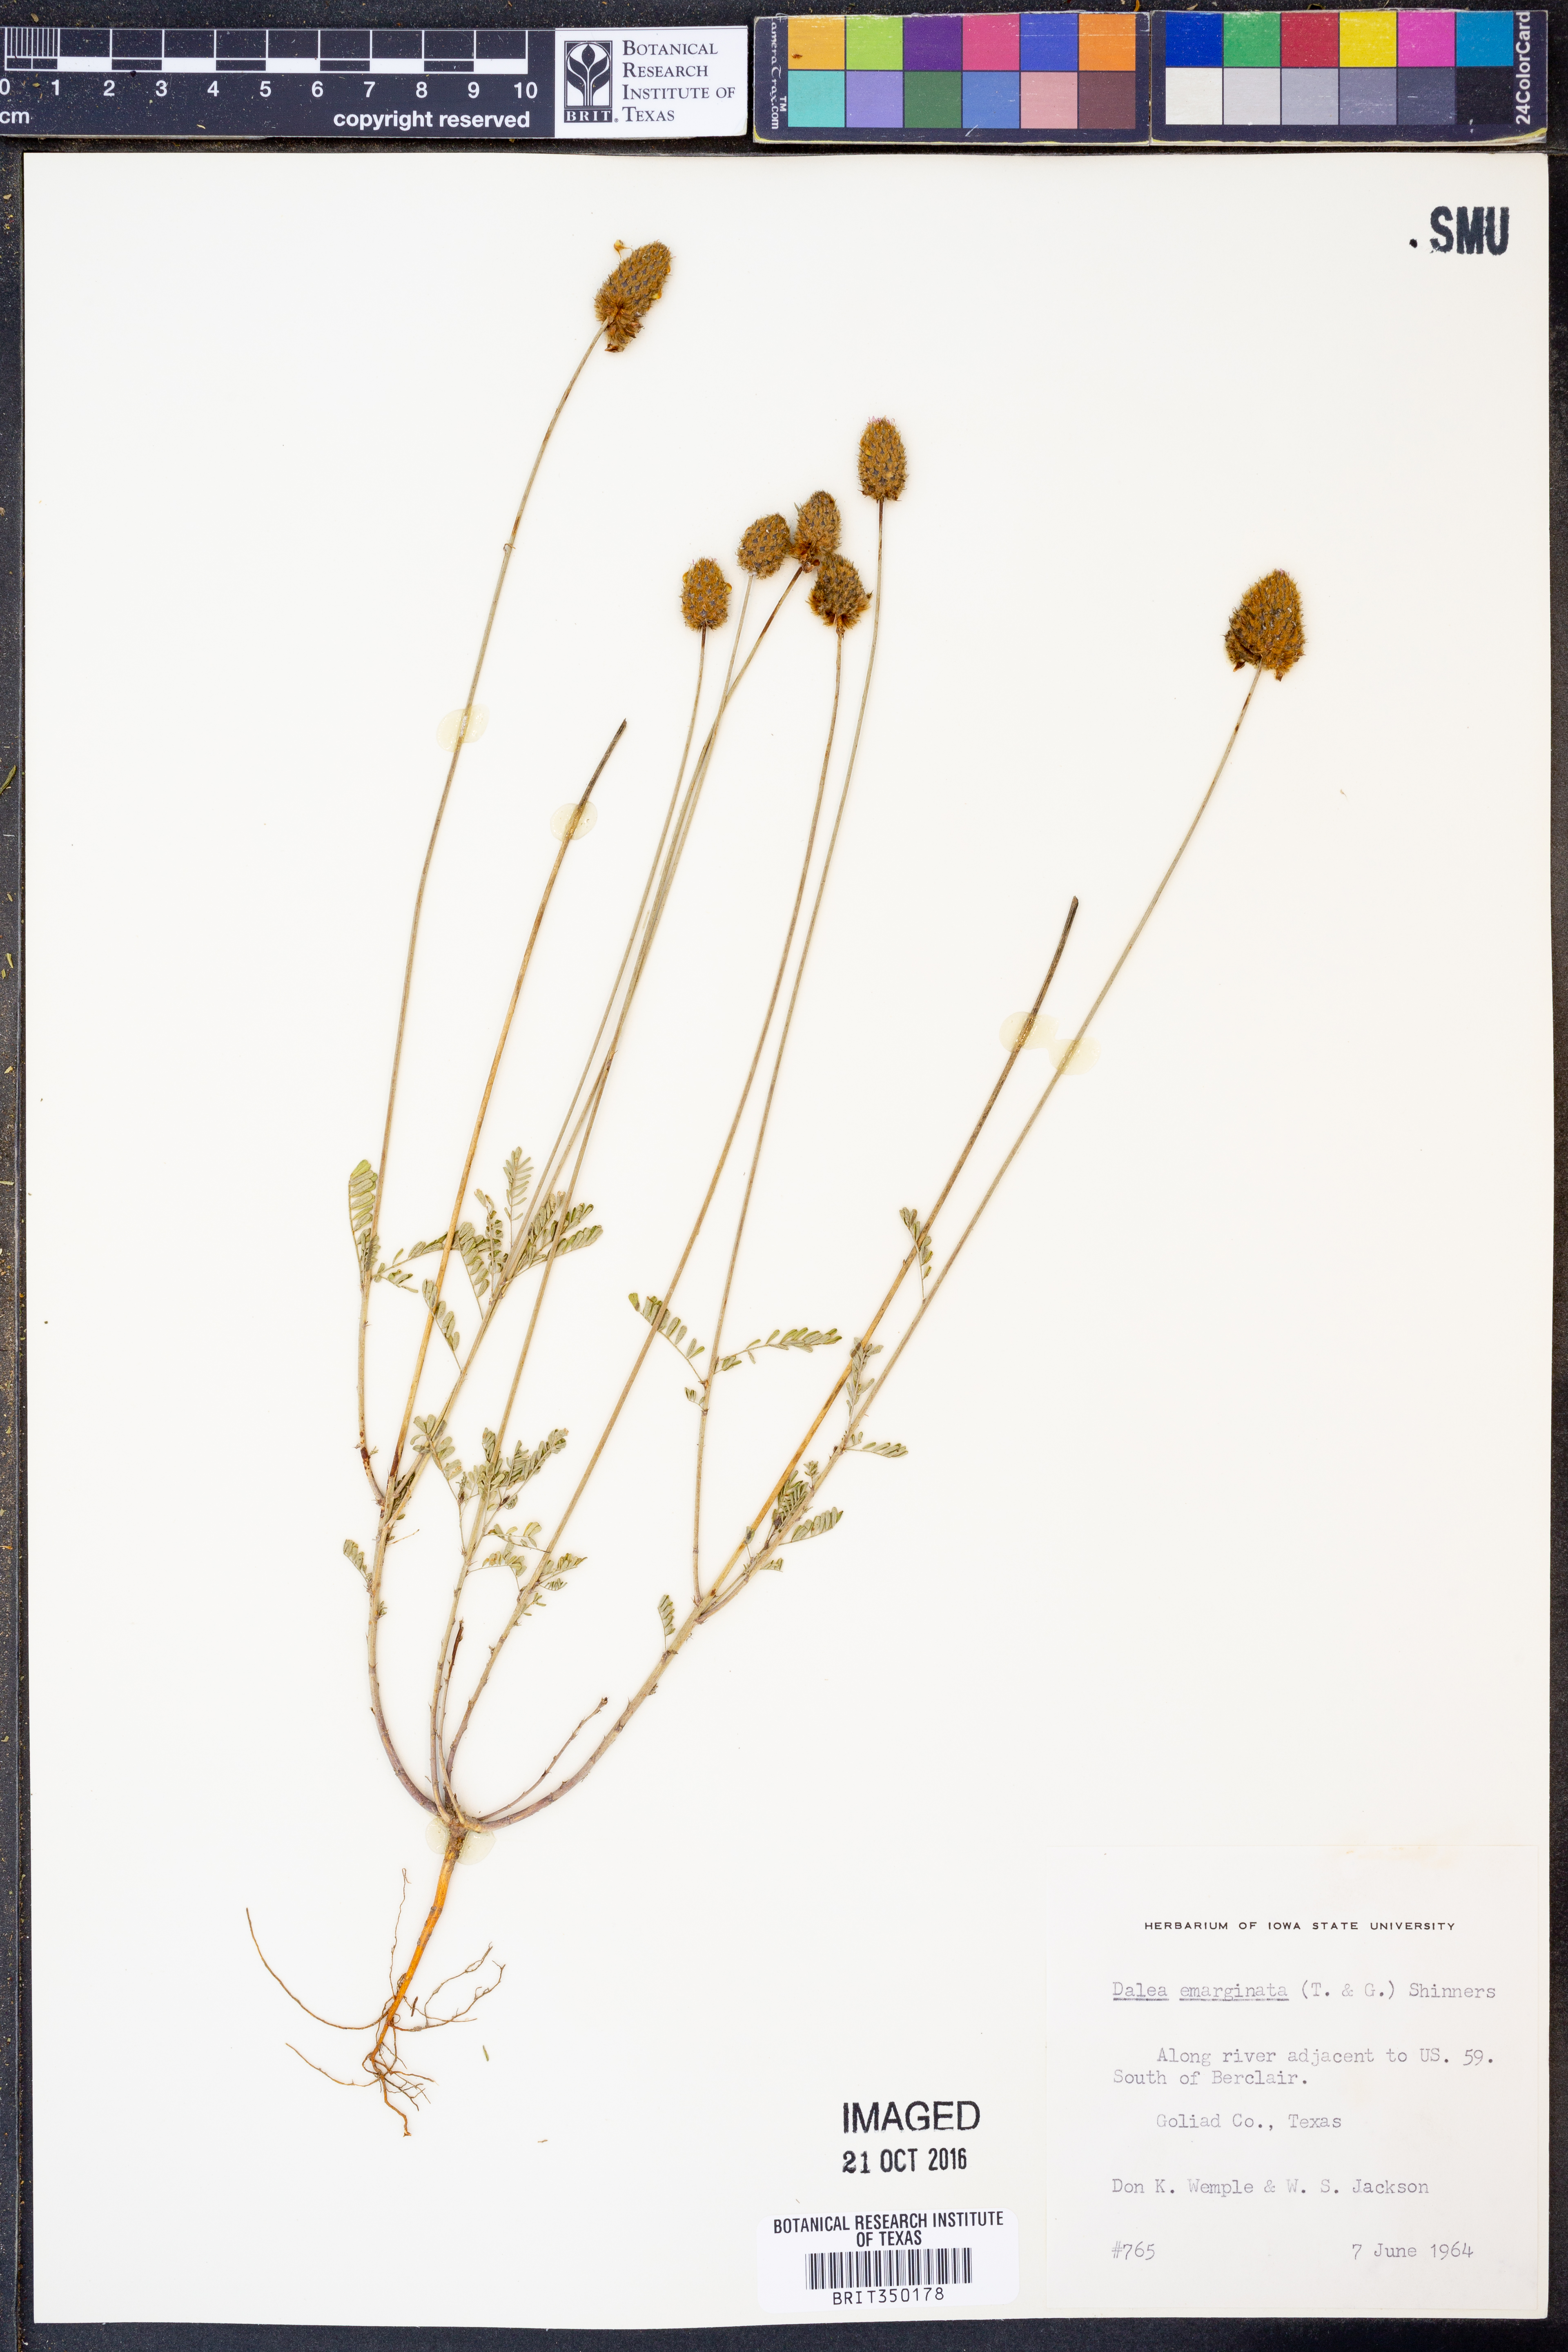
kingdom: Plantae
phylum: Tracheophyta
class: Magnoliopsida
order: Fabales
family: Fabaceae
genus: Dalea
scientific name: Dalea emarginata
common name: Wedgeleaf prairie clover
